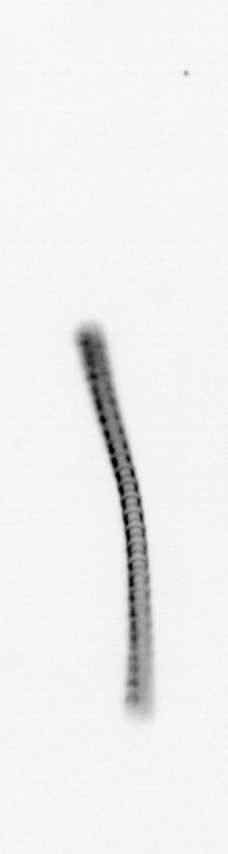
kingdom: Chromista
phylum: Ochrophyta
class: Bacillariophyceae
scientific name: Bacillariophyceae
